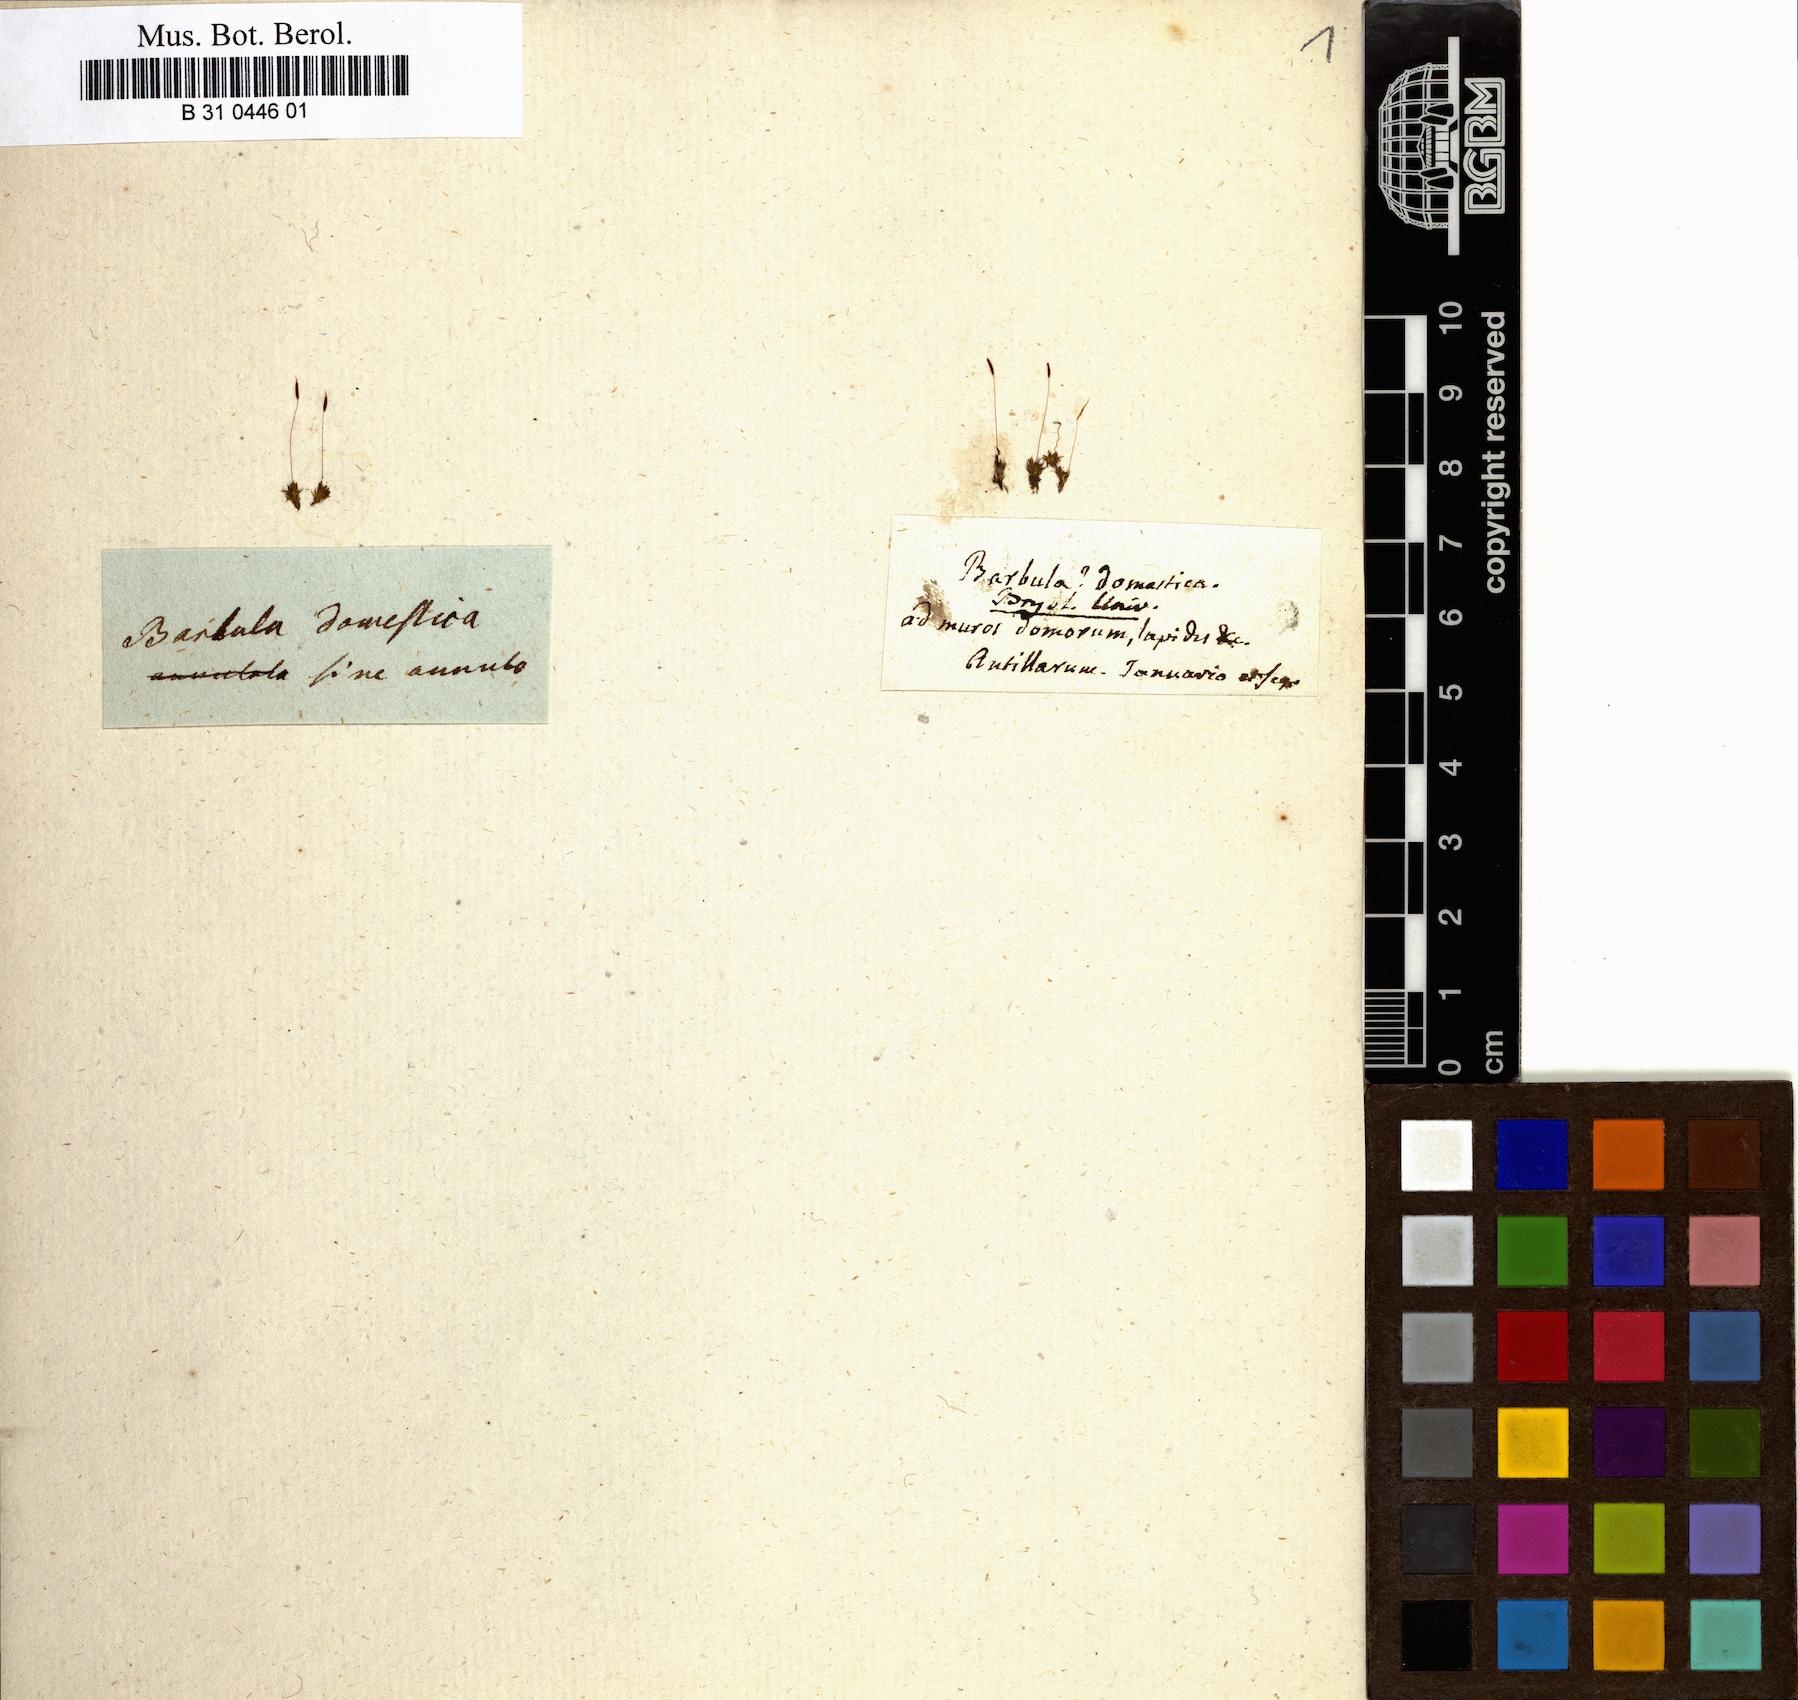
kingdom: Plantae
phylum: Bryophyta
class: Bryopsida
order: Pottiales
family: Pottiaceae
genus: Hyophiladelphus
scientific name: Hyophiladelphus agrarius
